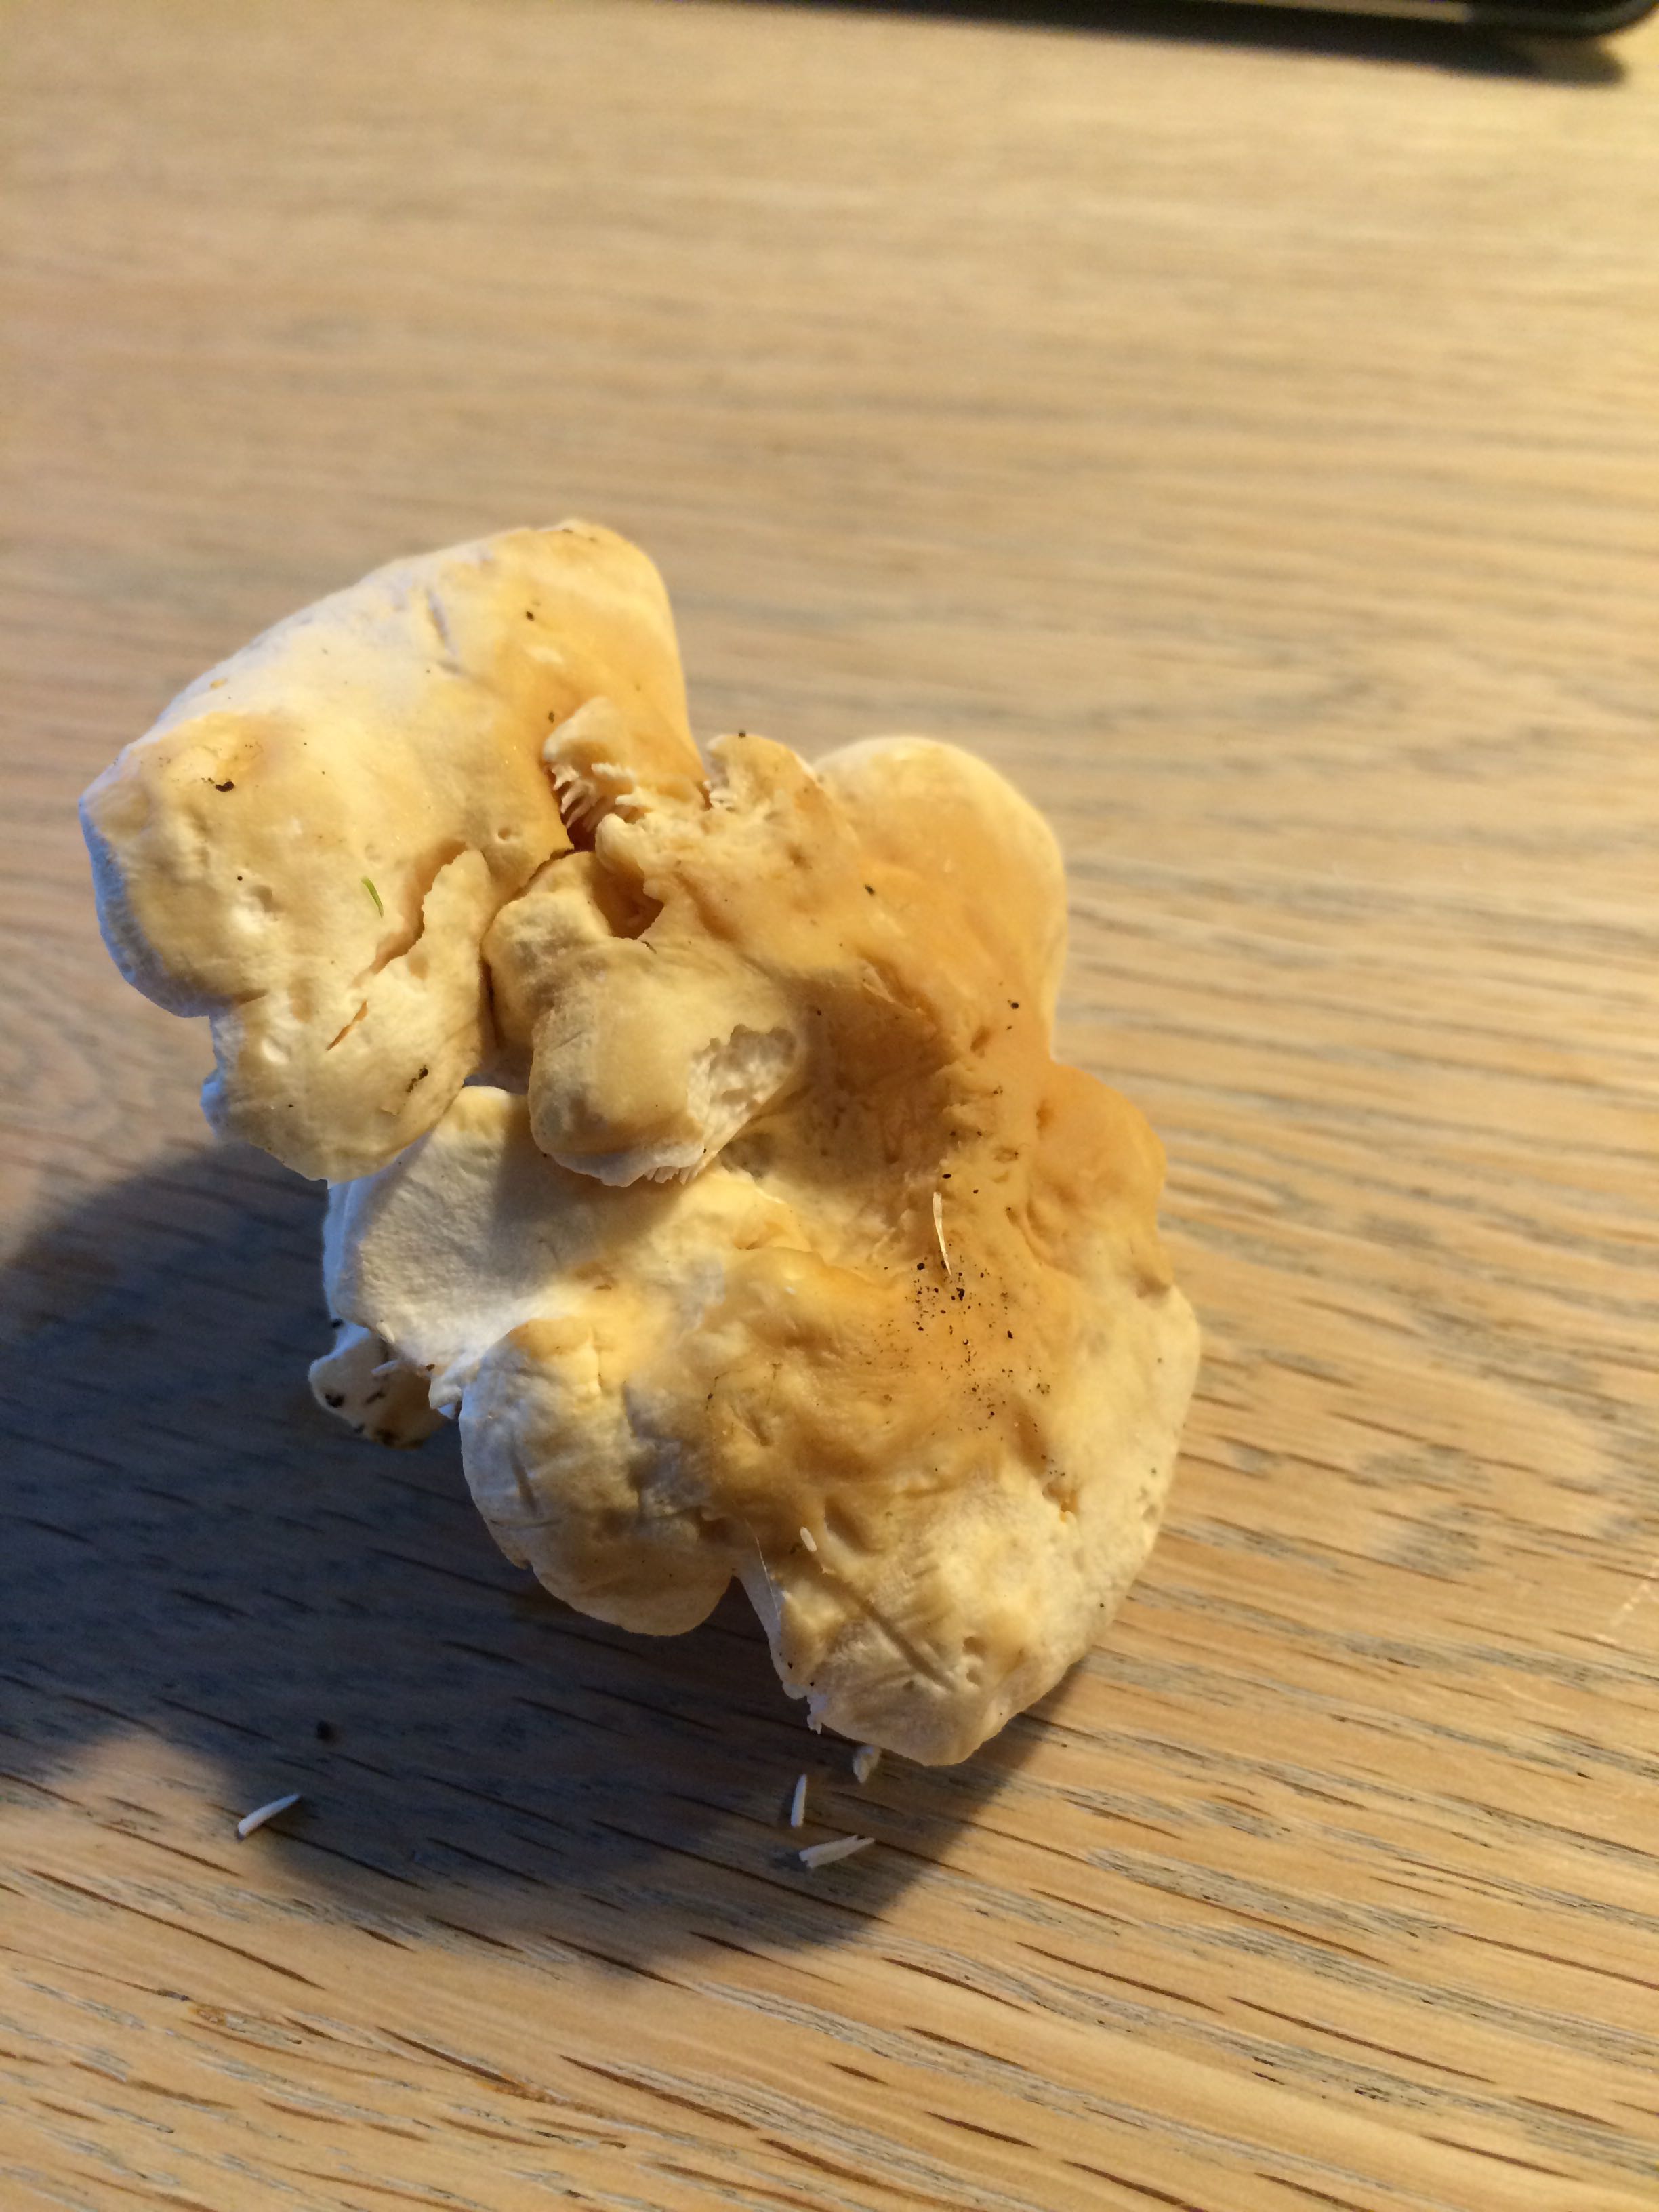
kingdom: Fungi
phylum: Basidiomycota
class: Agaricomycetes
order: Cantharellales
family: Hydnaceae
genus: Hydnum
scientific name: Hydnum repandum
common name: almindelig pigsvamp
